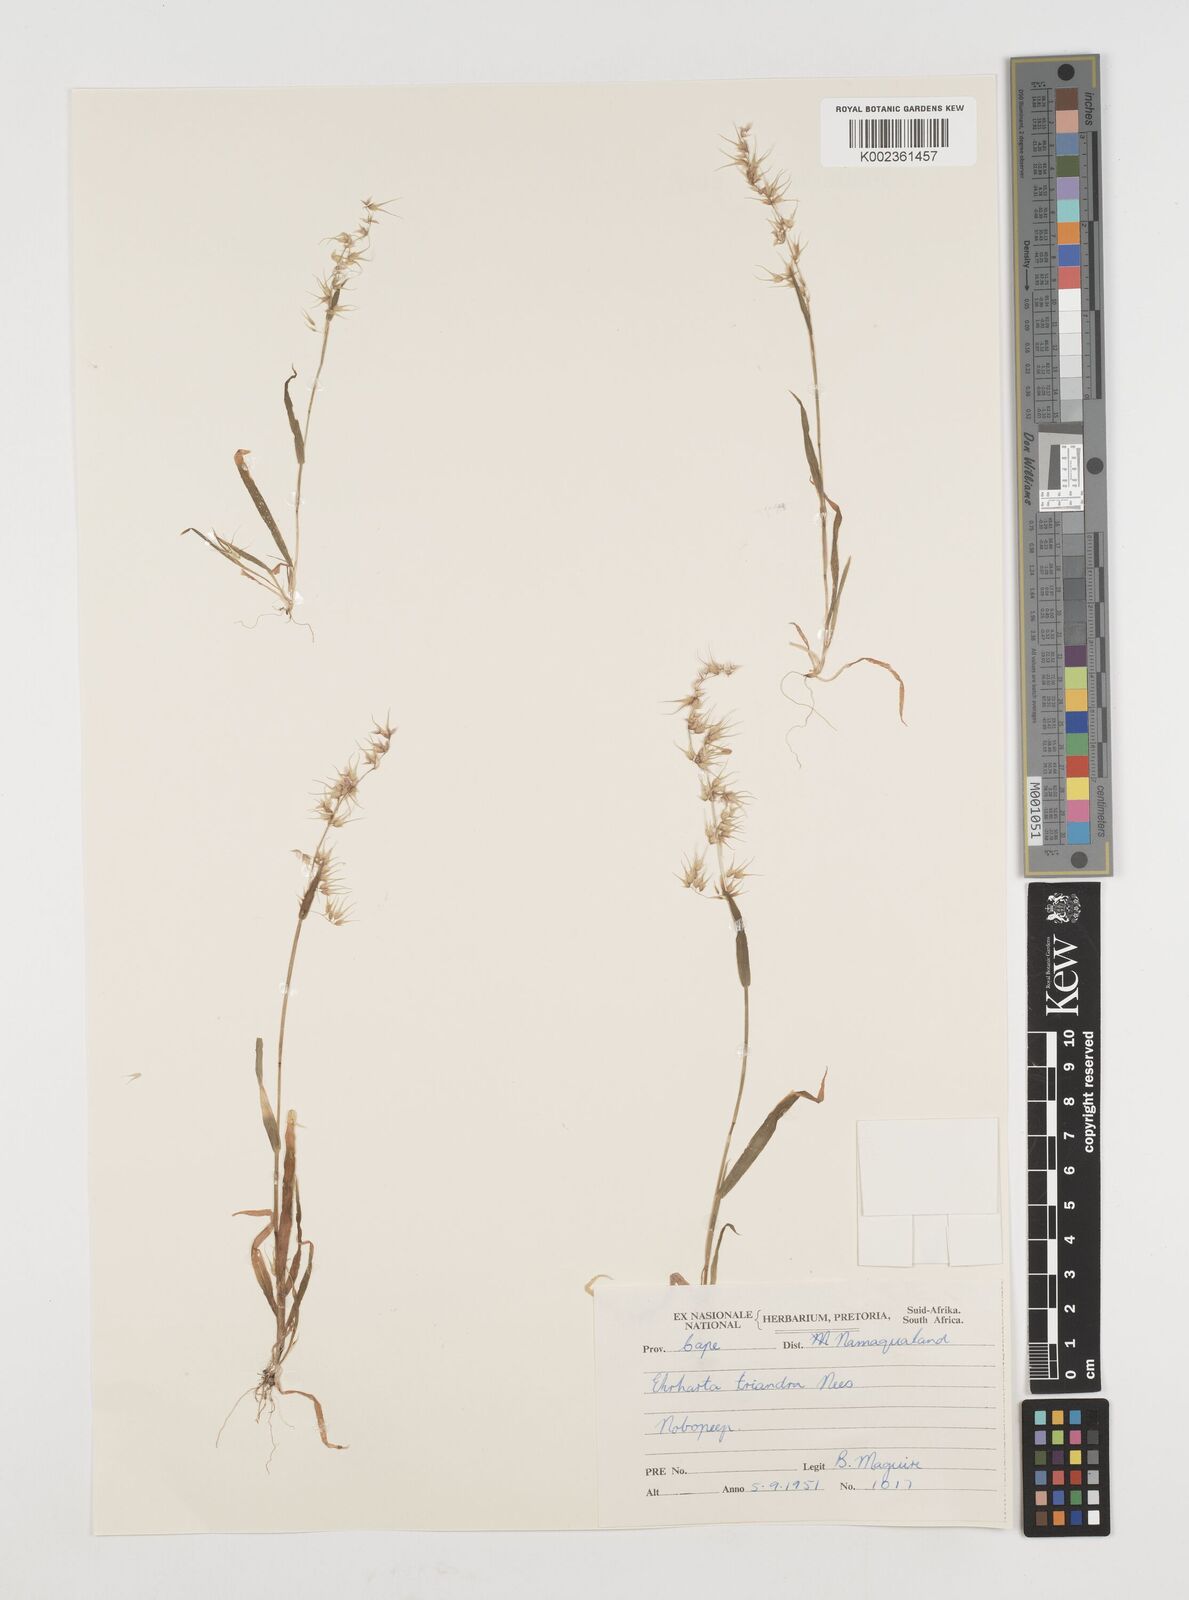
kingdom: Plantae
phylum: Tracheophyta
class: Liliopsida
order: Poales
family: Poaceae
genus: Ehrharta
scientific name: Ehrharta triandra
